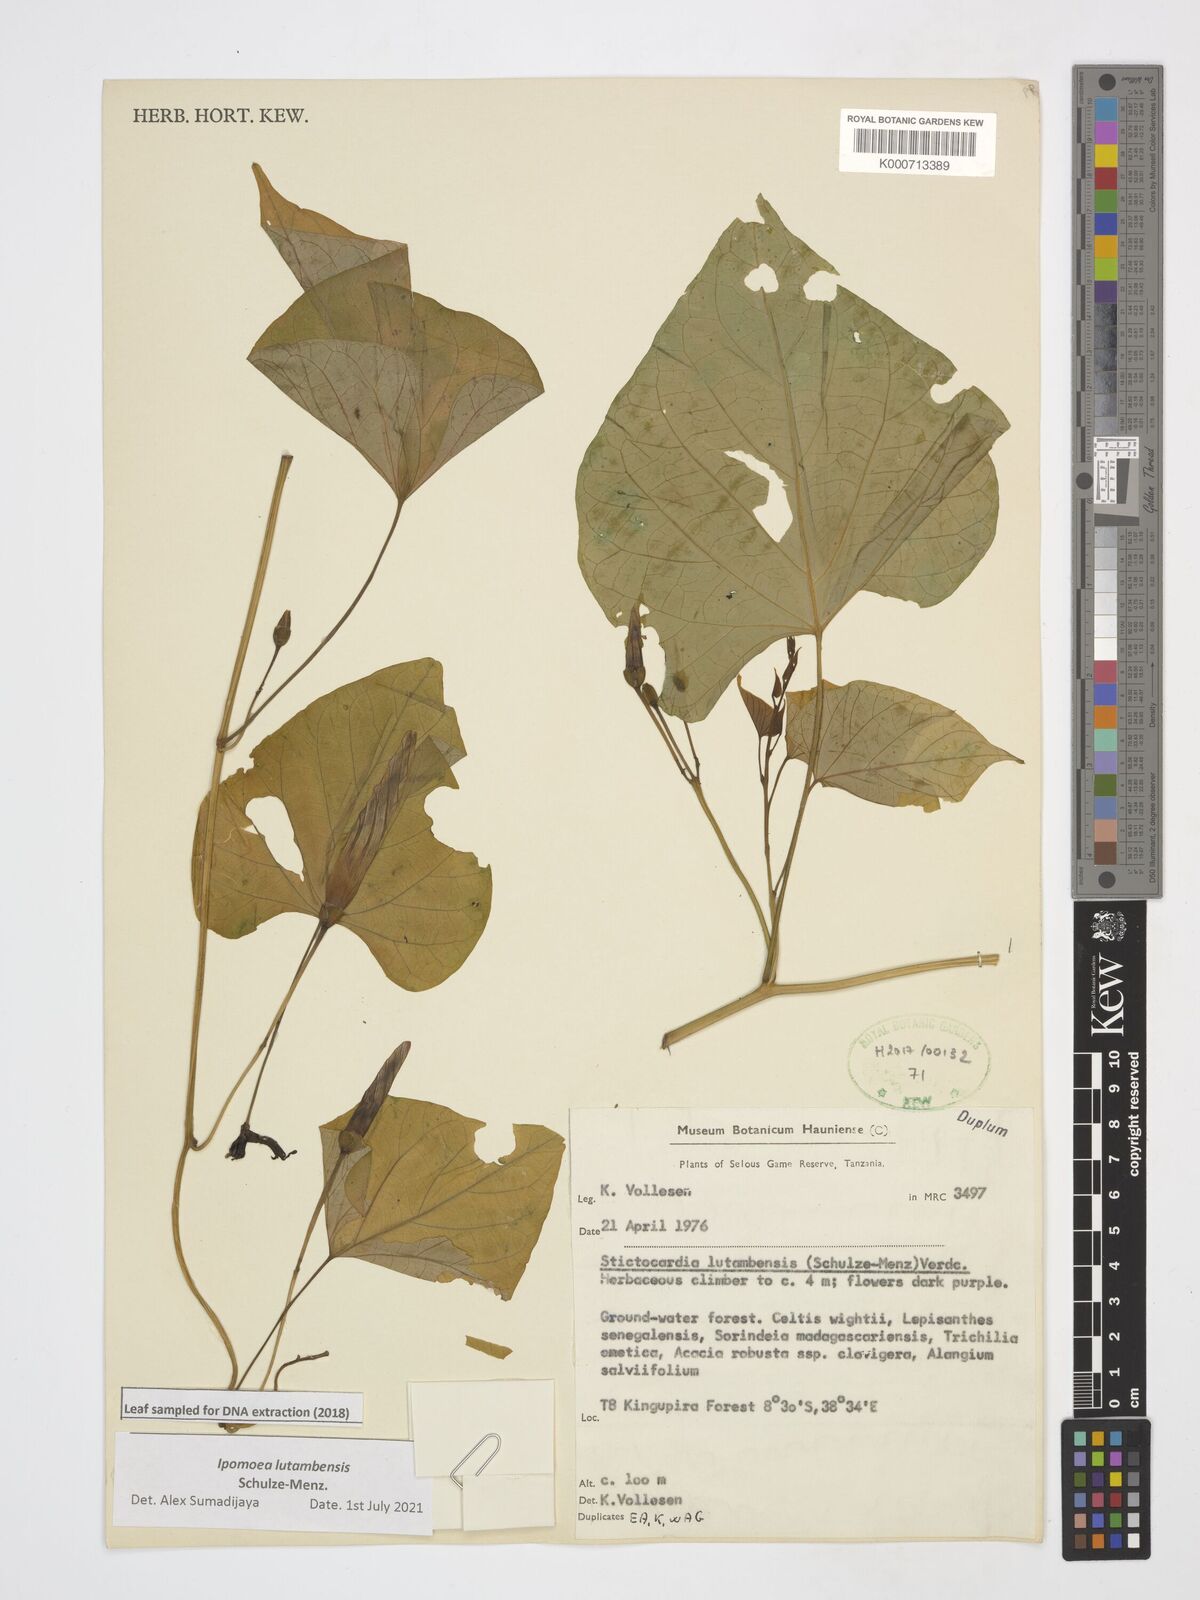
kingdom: Plantae
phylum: Tracheophyta
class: Magnoliopsida
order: Solanales
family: Convolvulaceae
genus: Stictocardia
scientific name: Stictocardia lutambensis
